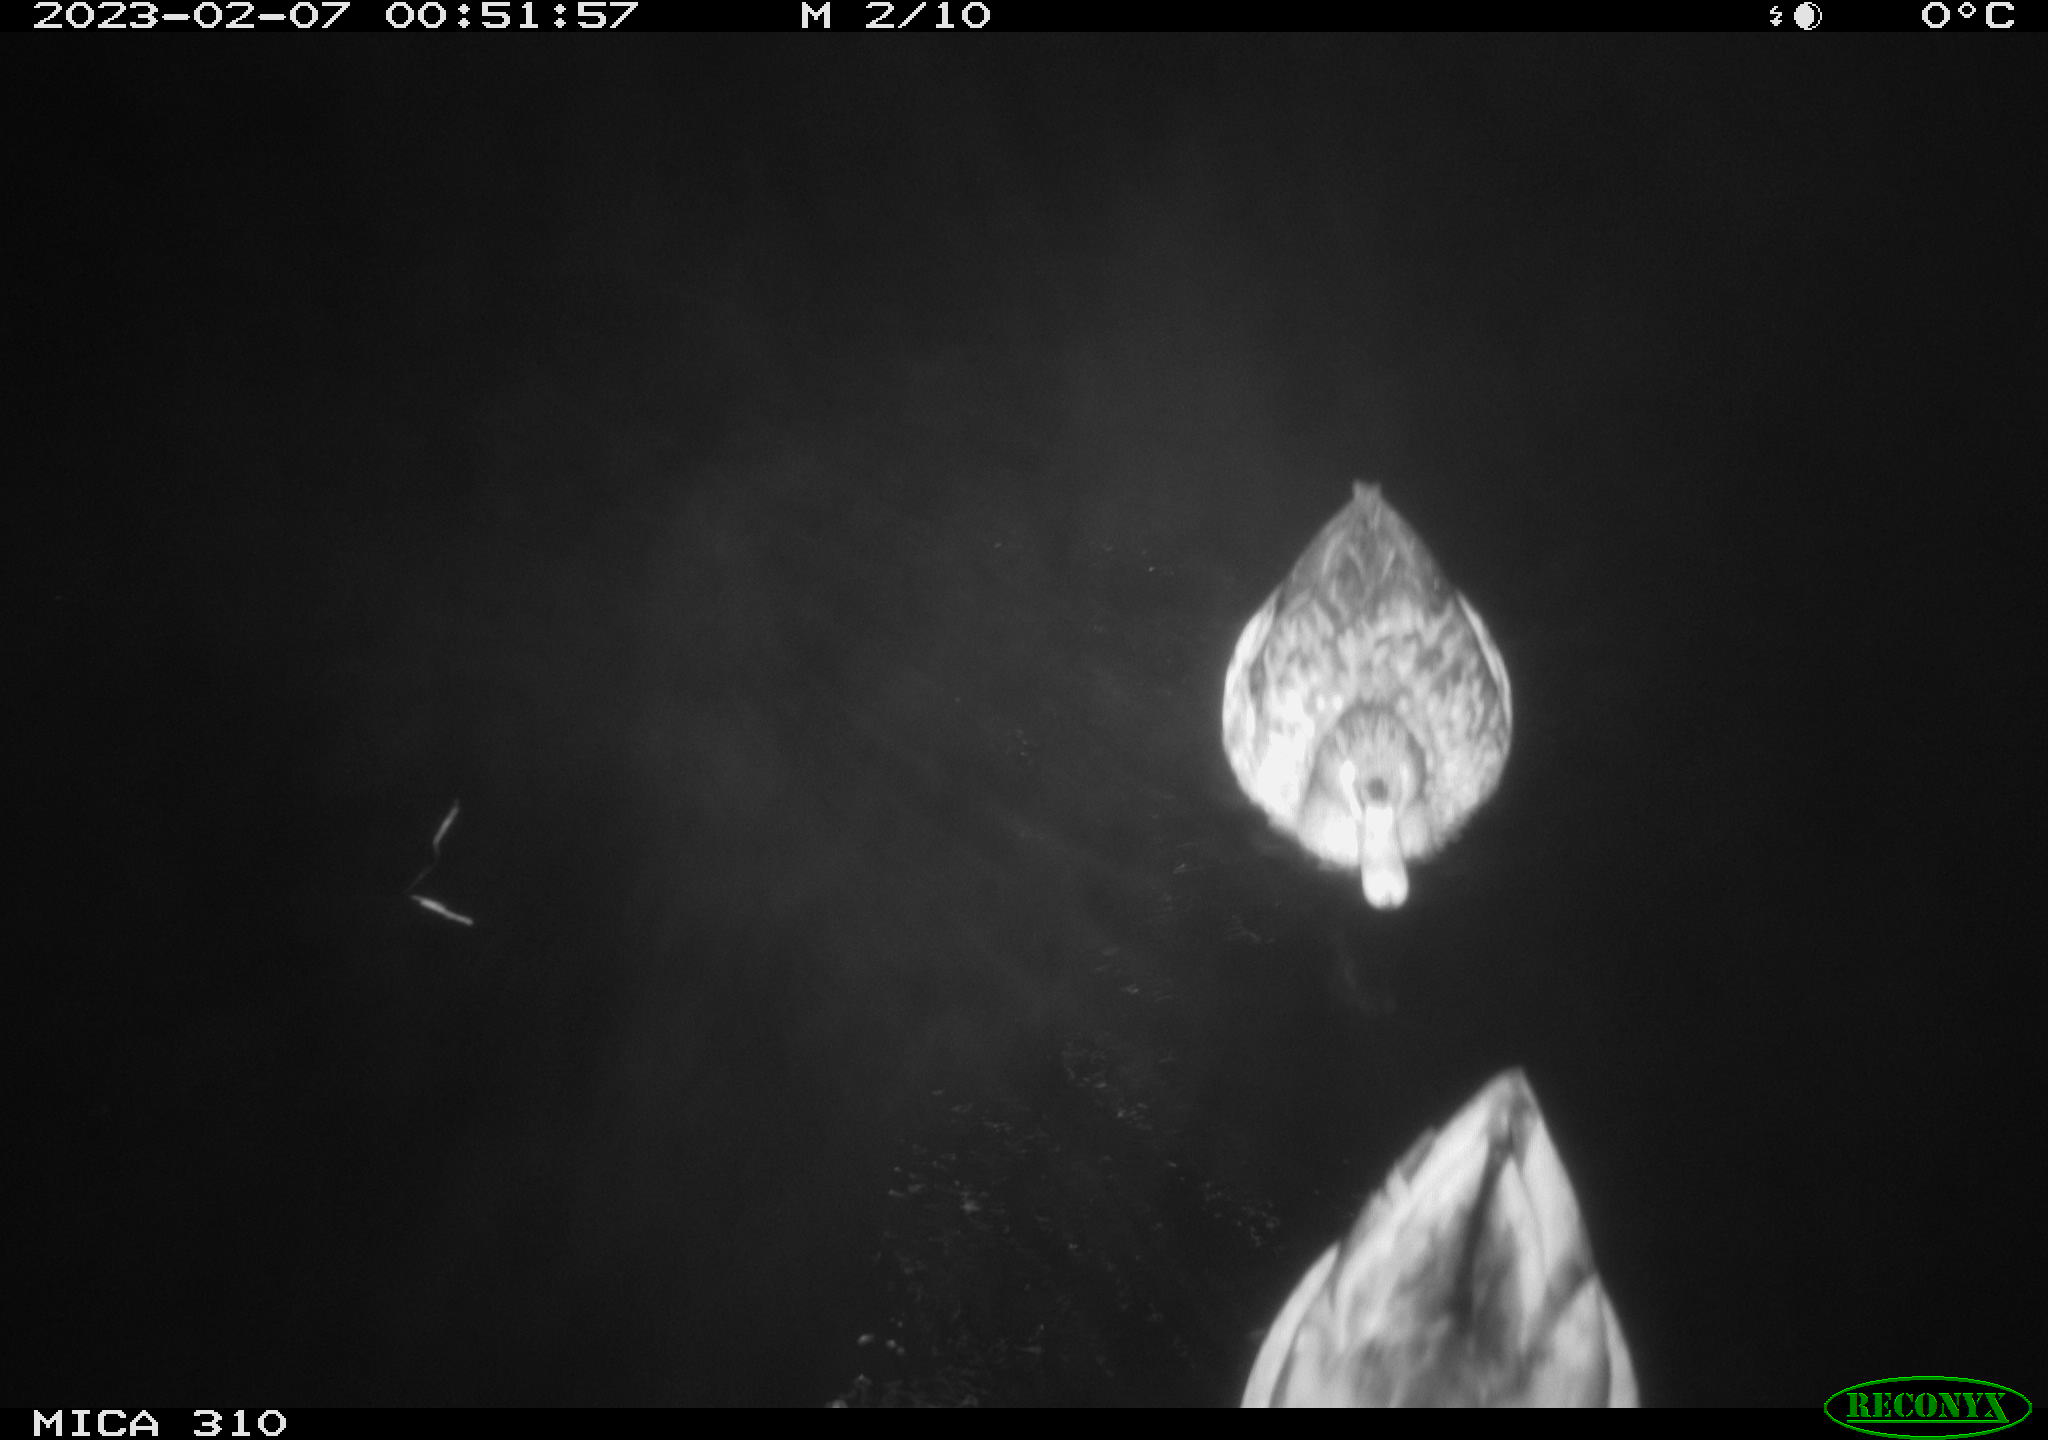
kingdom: Animalia
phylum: Chordata
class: Aves
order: Anseriformes
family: Anatidae
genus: Anas
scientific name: Anas
